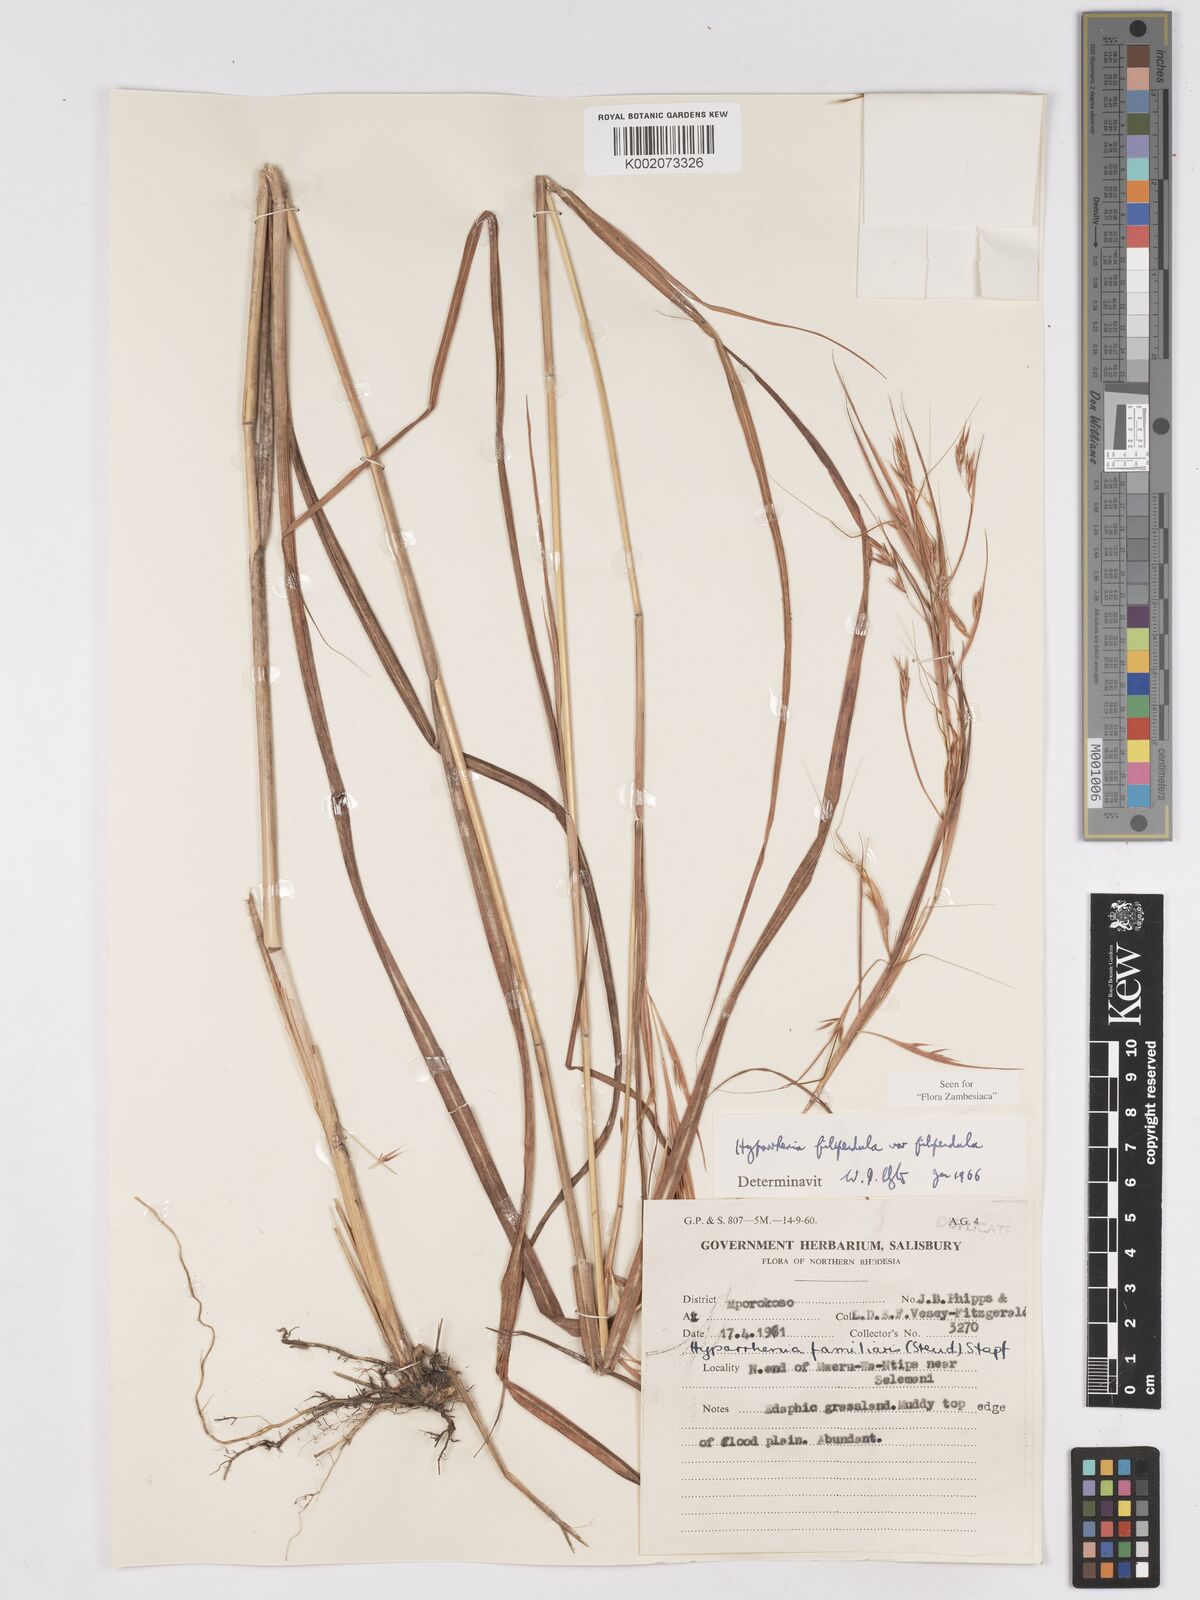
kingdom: Plantae
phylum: Tracheophyta
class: Liliopsida
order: Poales
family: Poaceae
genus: Hyparrhenia
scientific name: Hyparrhenia filipendula
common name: Tambookie grass
